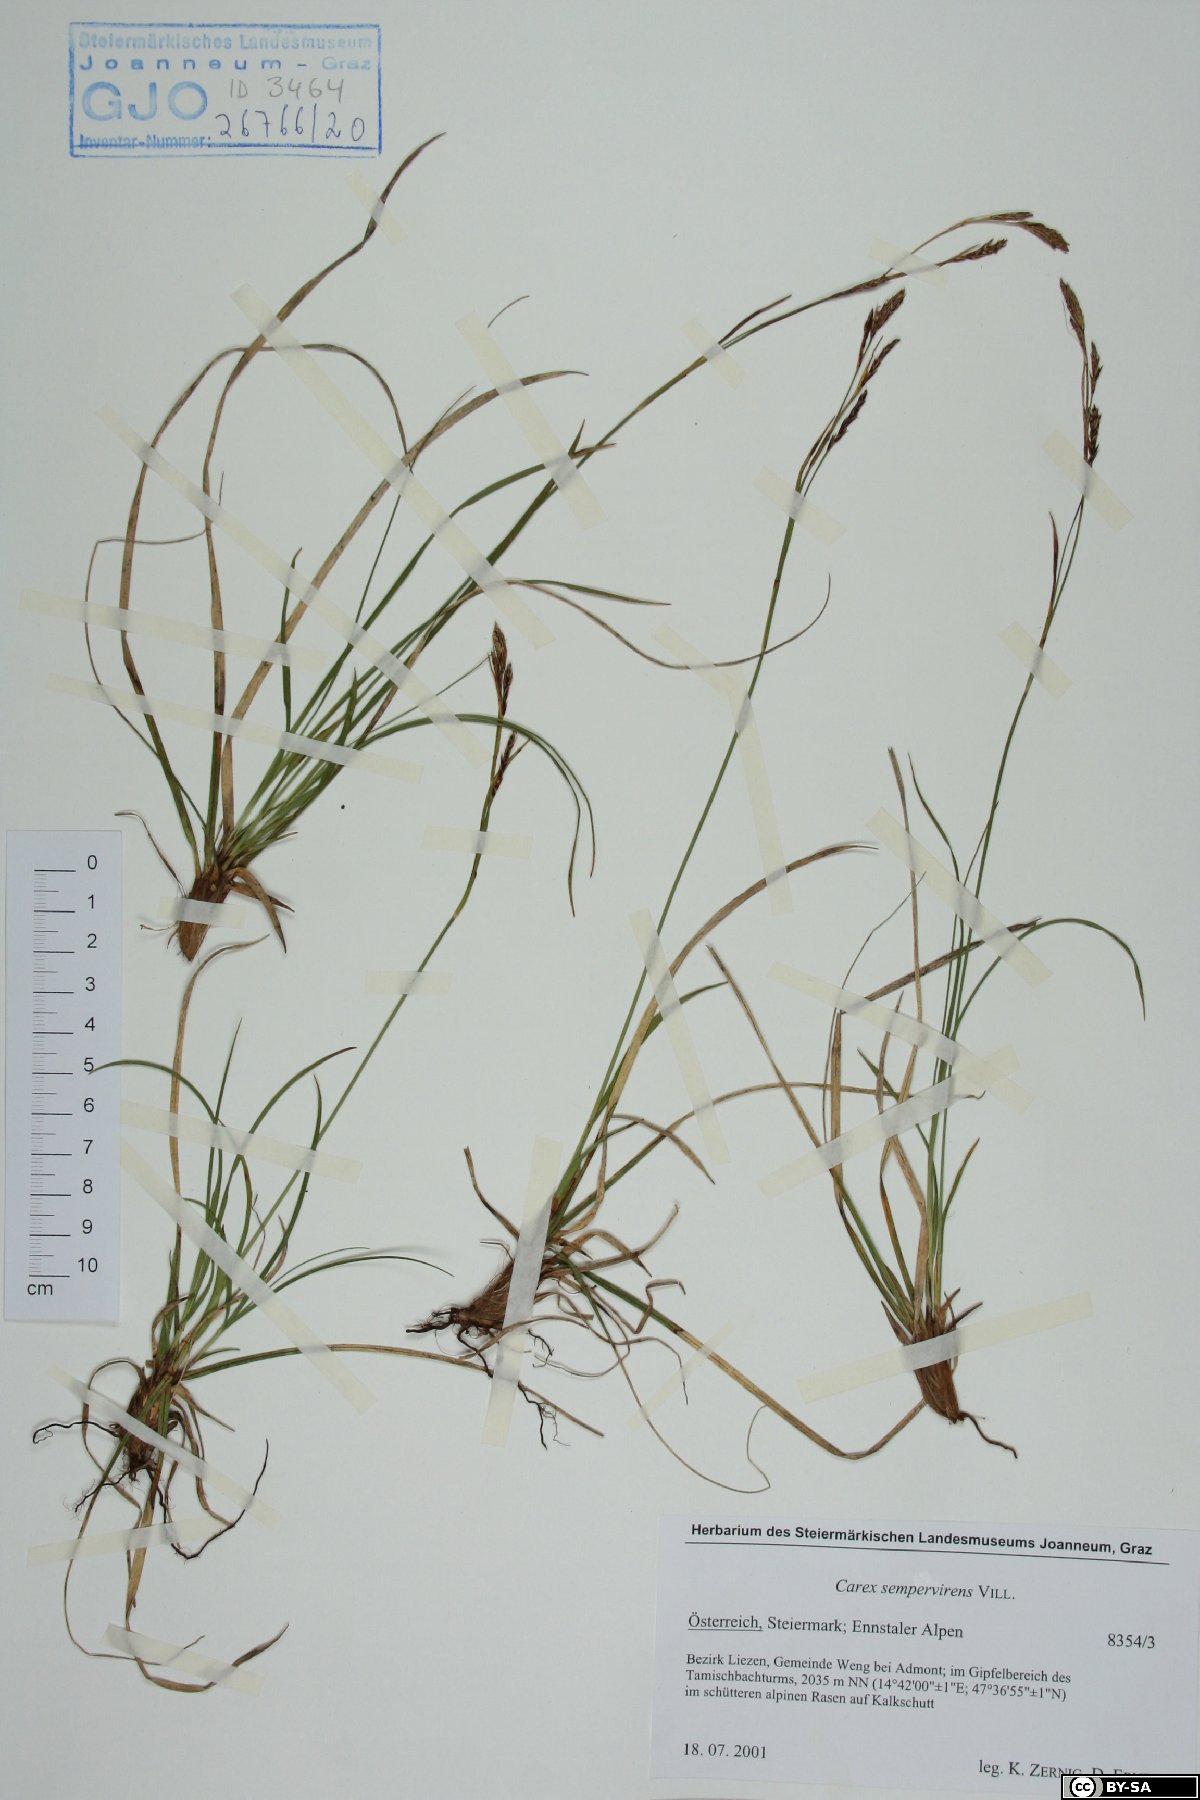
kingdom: Plantae
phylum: Tracheophyta
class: Liliopsida
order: Poales
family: Cyperaceae
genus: Carex
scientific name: Carex sempervirens
